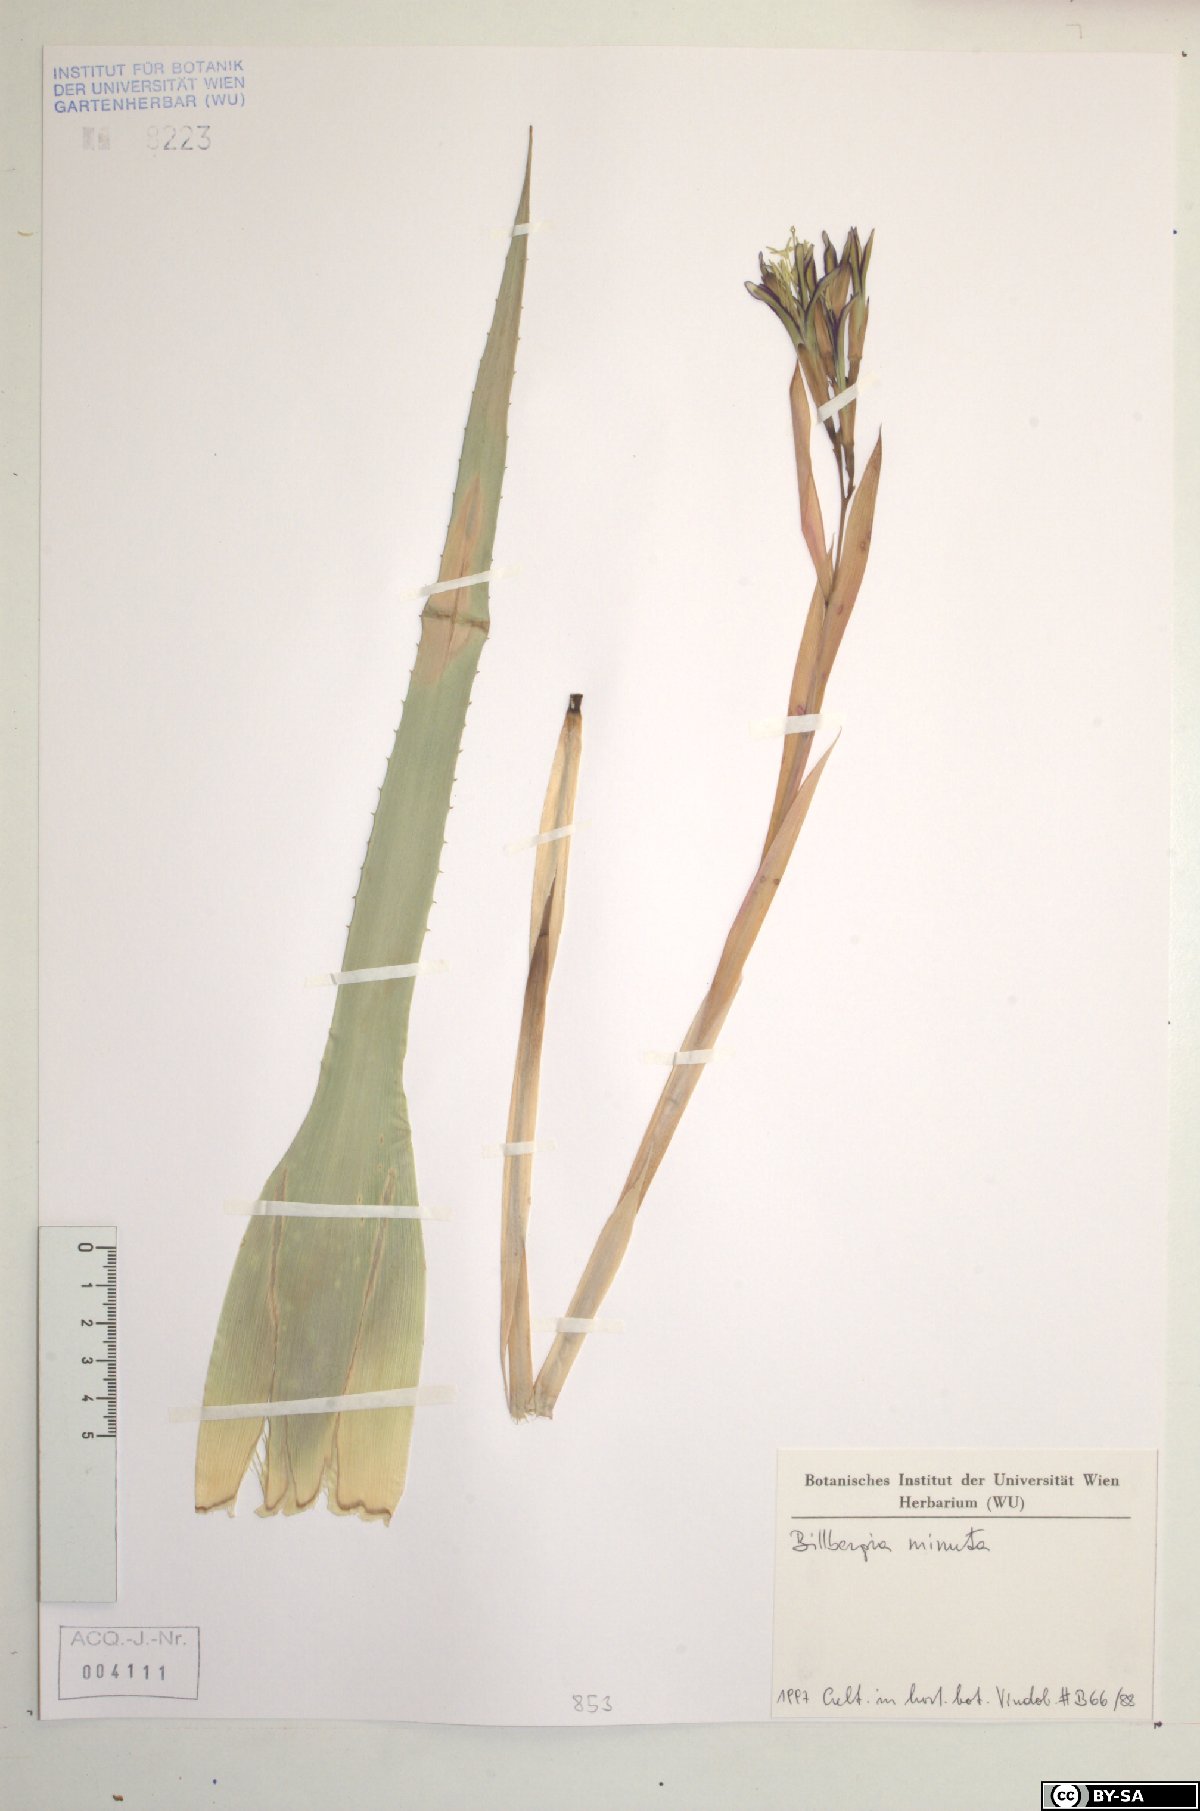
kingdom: Plantae
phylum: Tracheophyta
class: Liliopsida
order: Poales
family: Bromeliaceae
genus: Billbergia
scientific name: Billbergia nutans
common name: Friendship-plant
